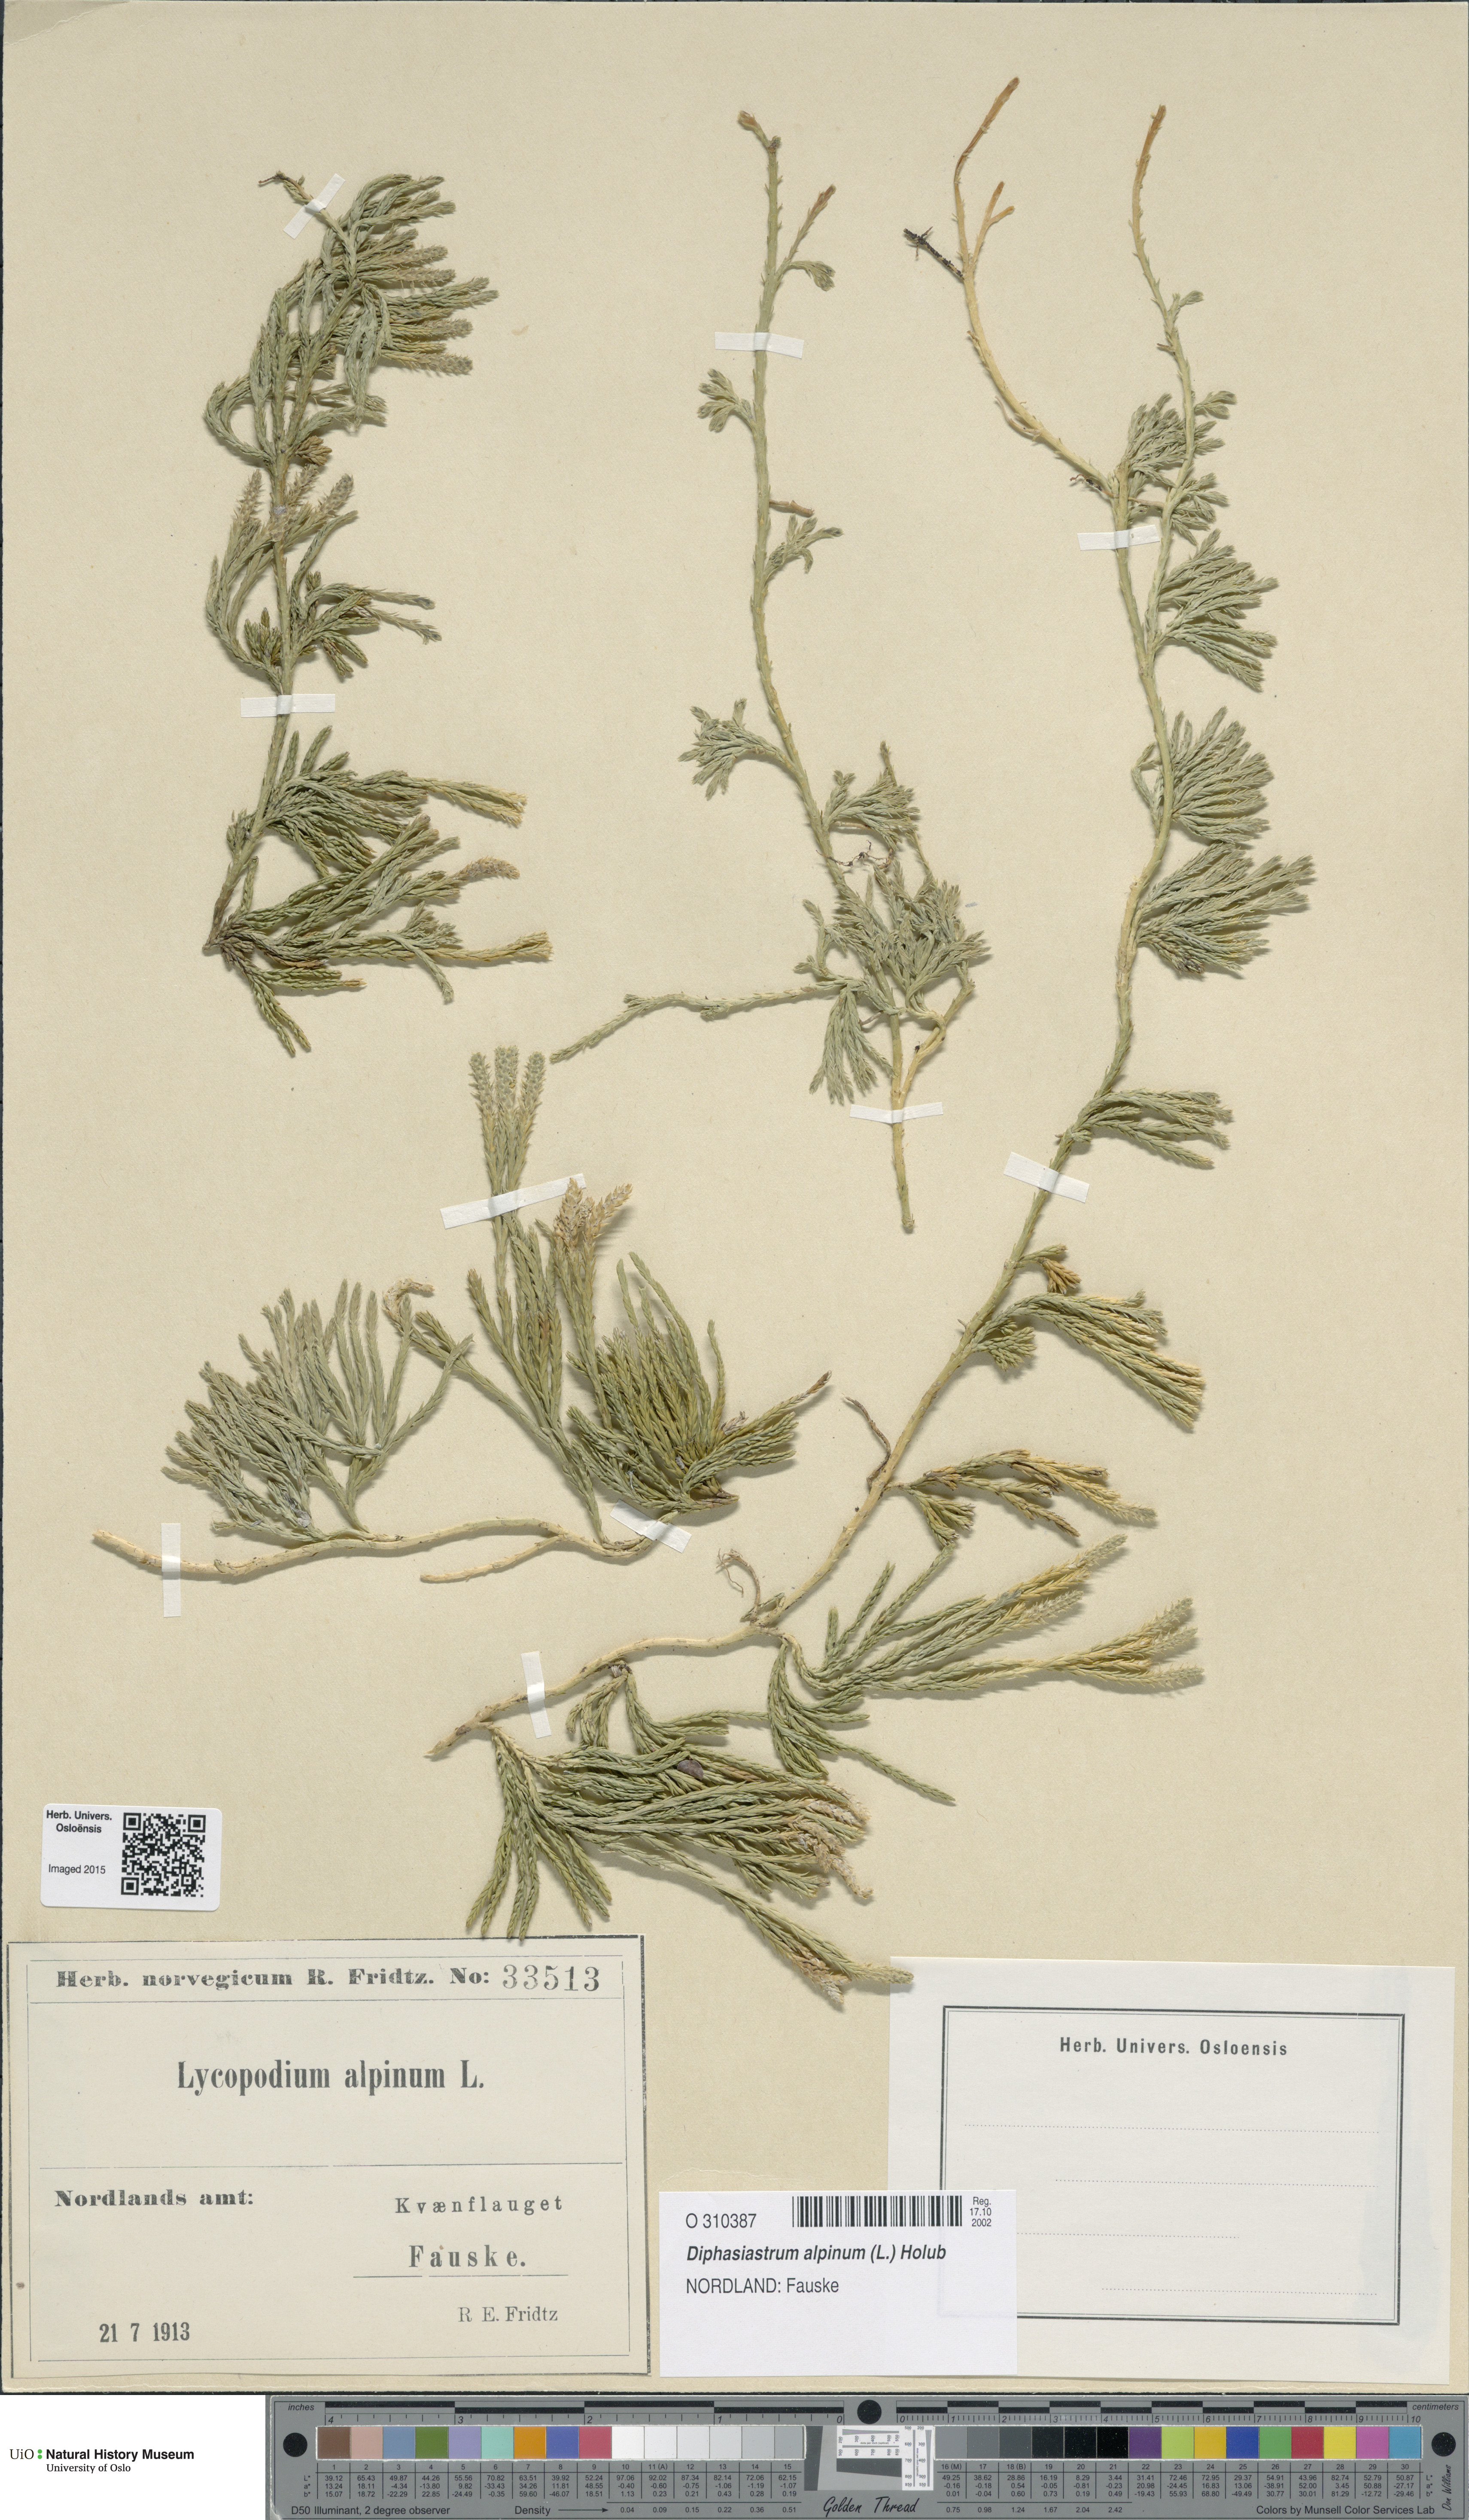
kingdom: Plantae
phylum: Tracheophyta
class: Lycopodiopsida
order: Lycopodiales
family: Lycopodiaceae
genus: Diphasiastrum
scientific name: Diphasiastrum alpinum
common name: Alpine clubmoss
